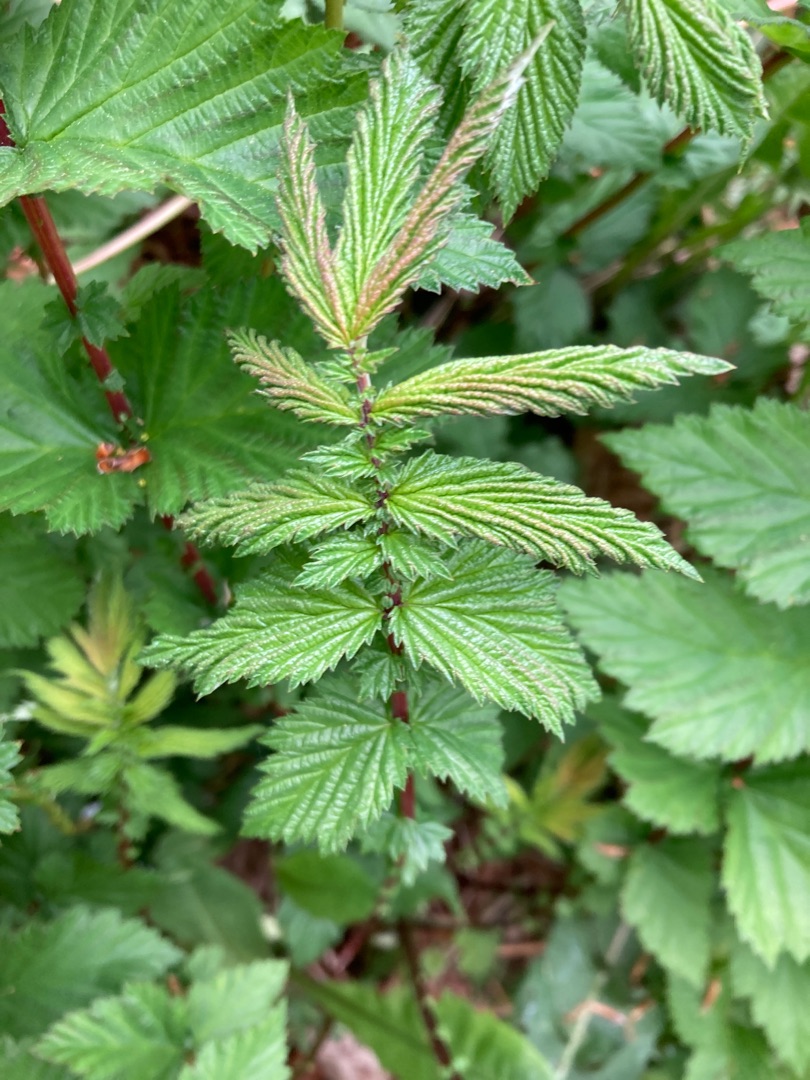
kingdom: Plantae
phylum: Tracheophyta
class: Magnoliopsida
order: Rosales
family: Rosaceae
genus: Filipendula
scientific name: Filipendula ulmaria
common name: Almindelig mjødurt
